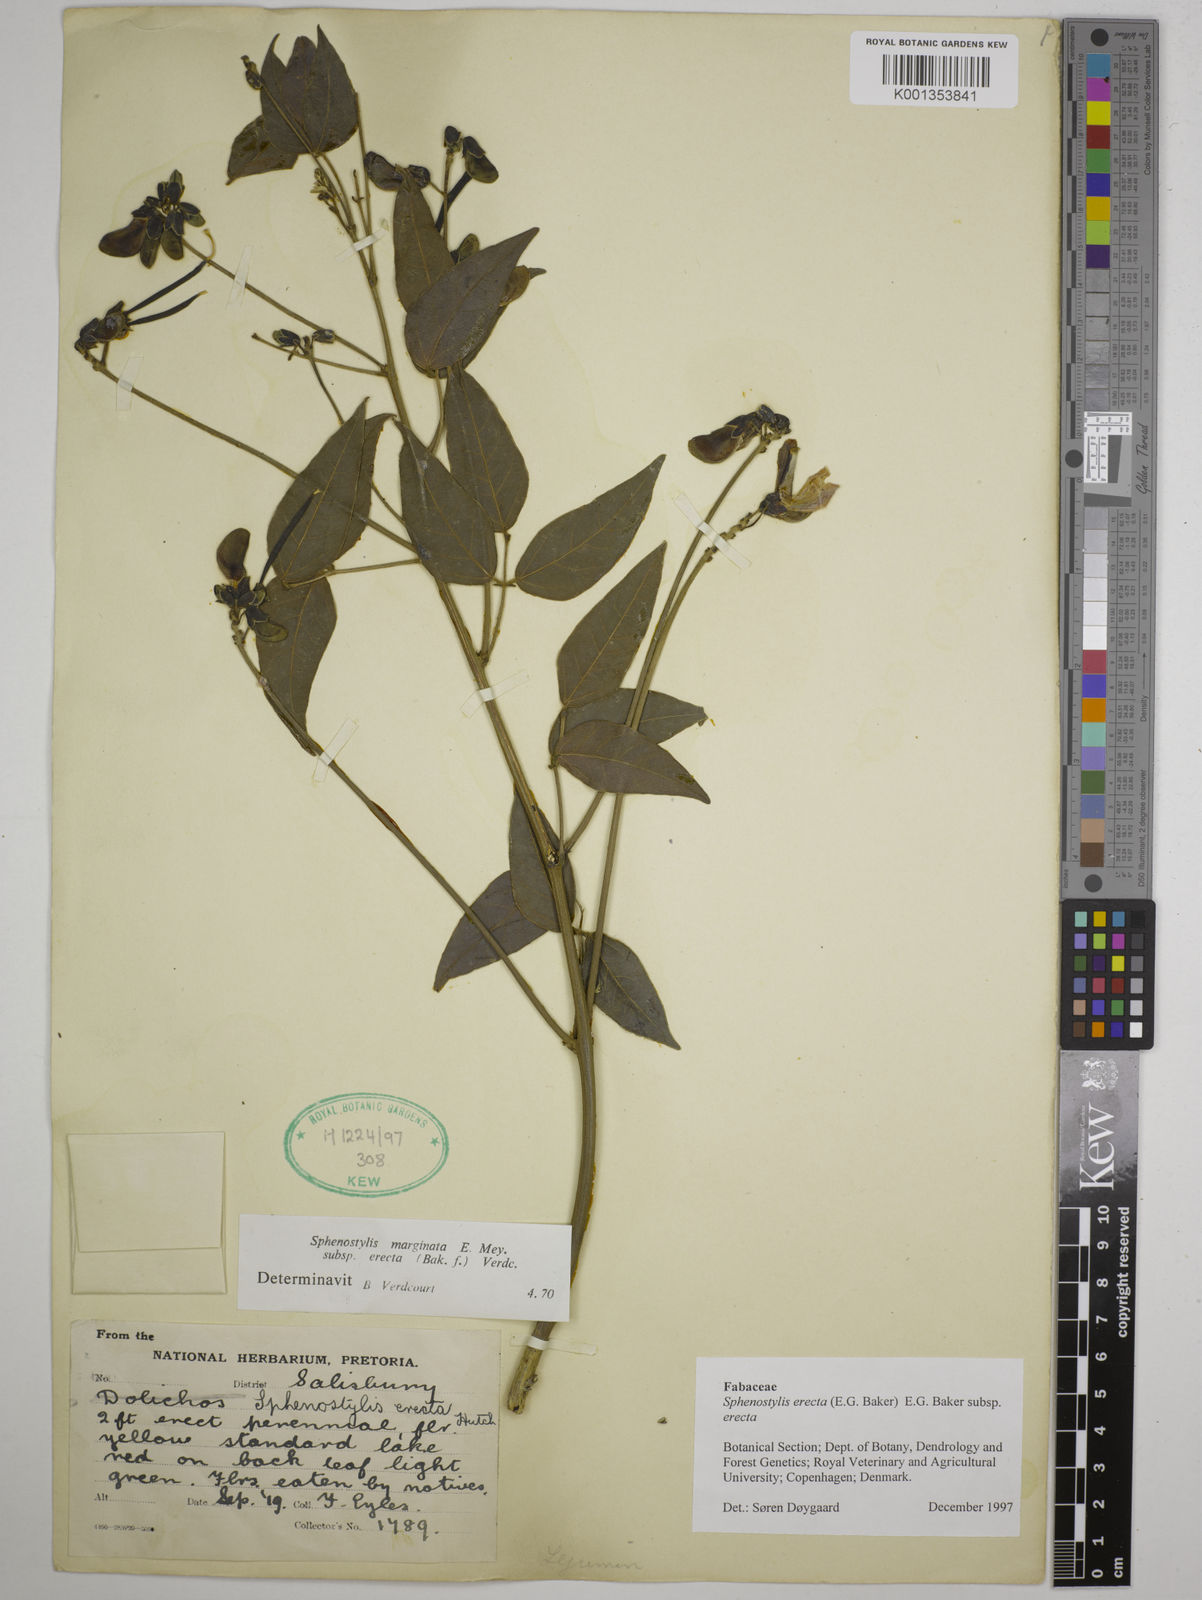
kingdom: Plantae
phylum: Tracheophyta
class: Magnoliopsida
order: Fabales
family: Fabaceae
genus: Sphenostylis
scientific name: Sphenostylis erecta
